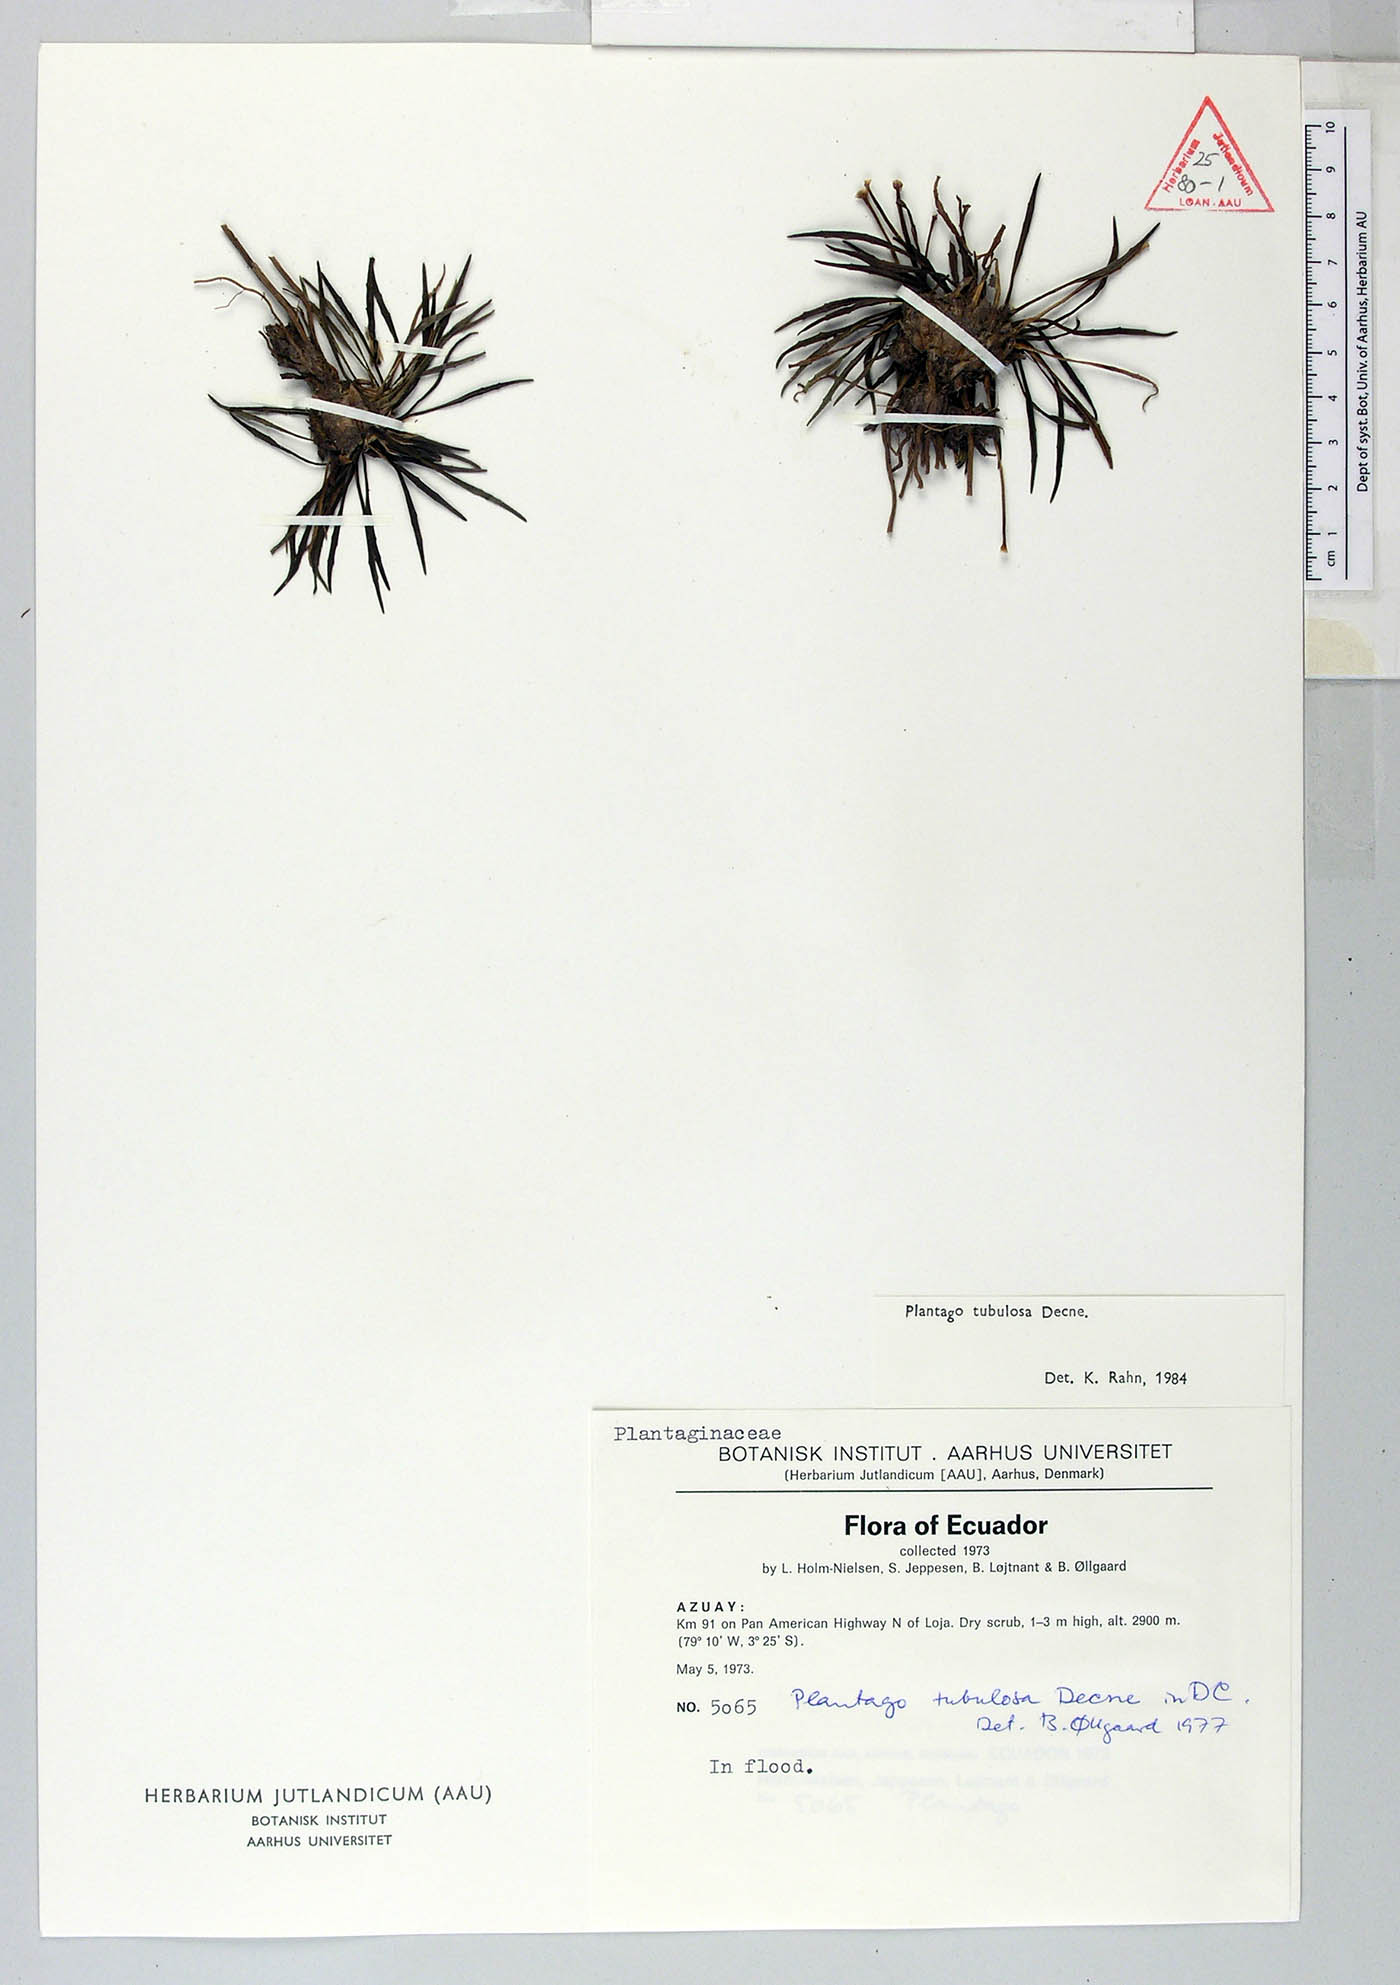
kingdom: Plantae
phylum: Tracheophyta
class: Magnoliopsida
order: Lamiales
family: Plantaginaceae
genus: Plantago
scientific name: Plantago tubulosa
